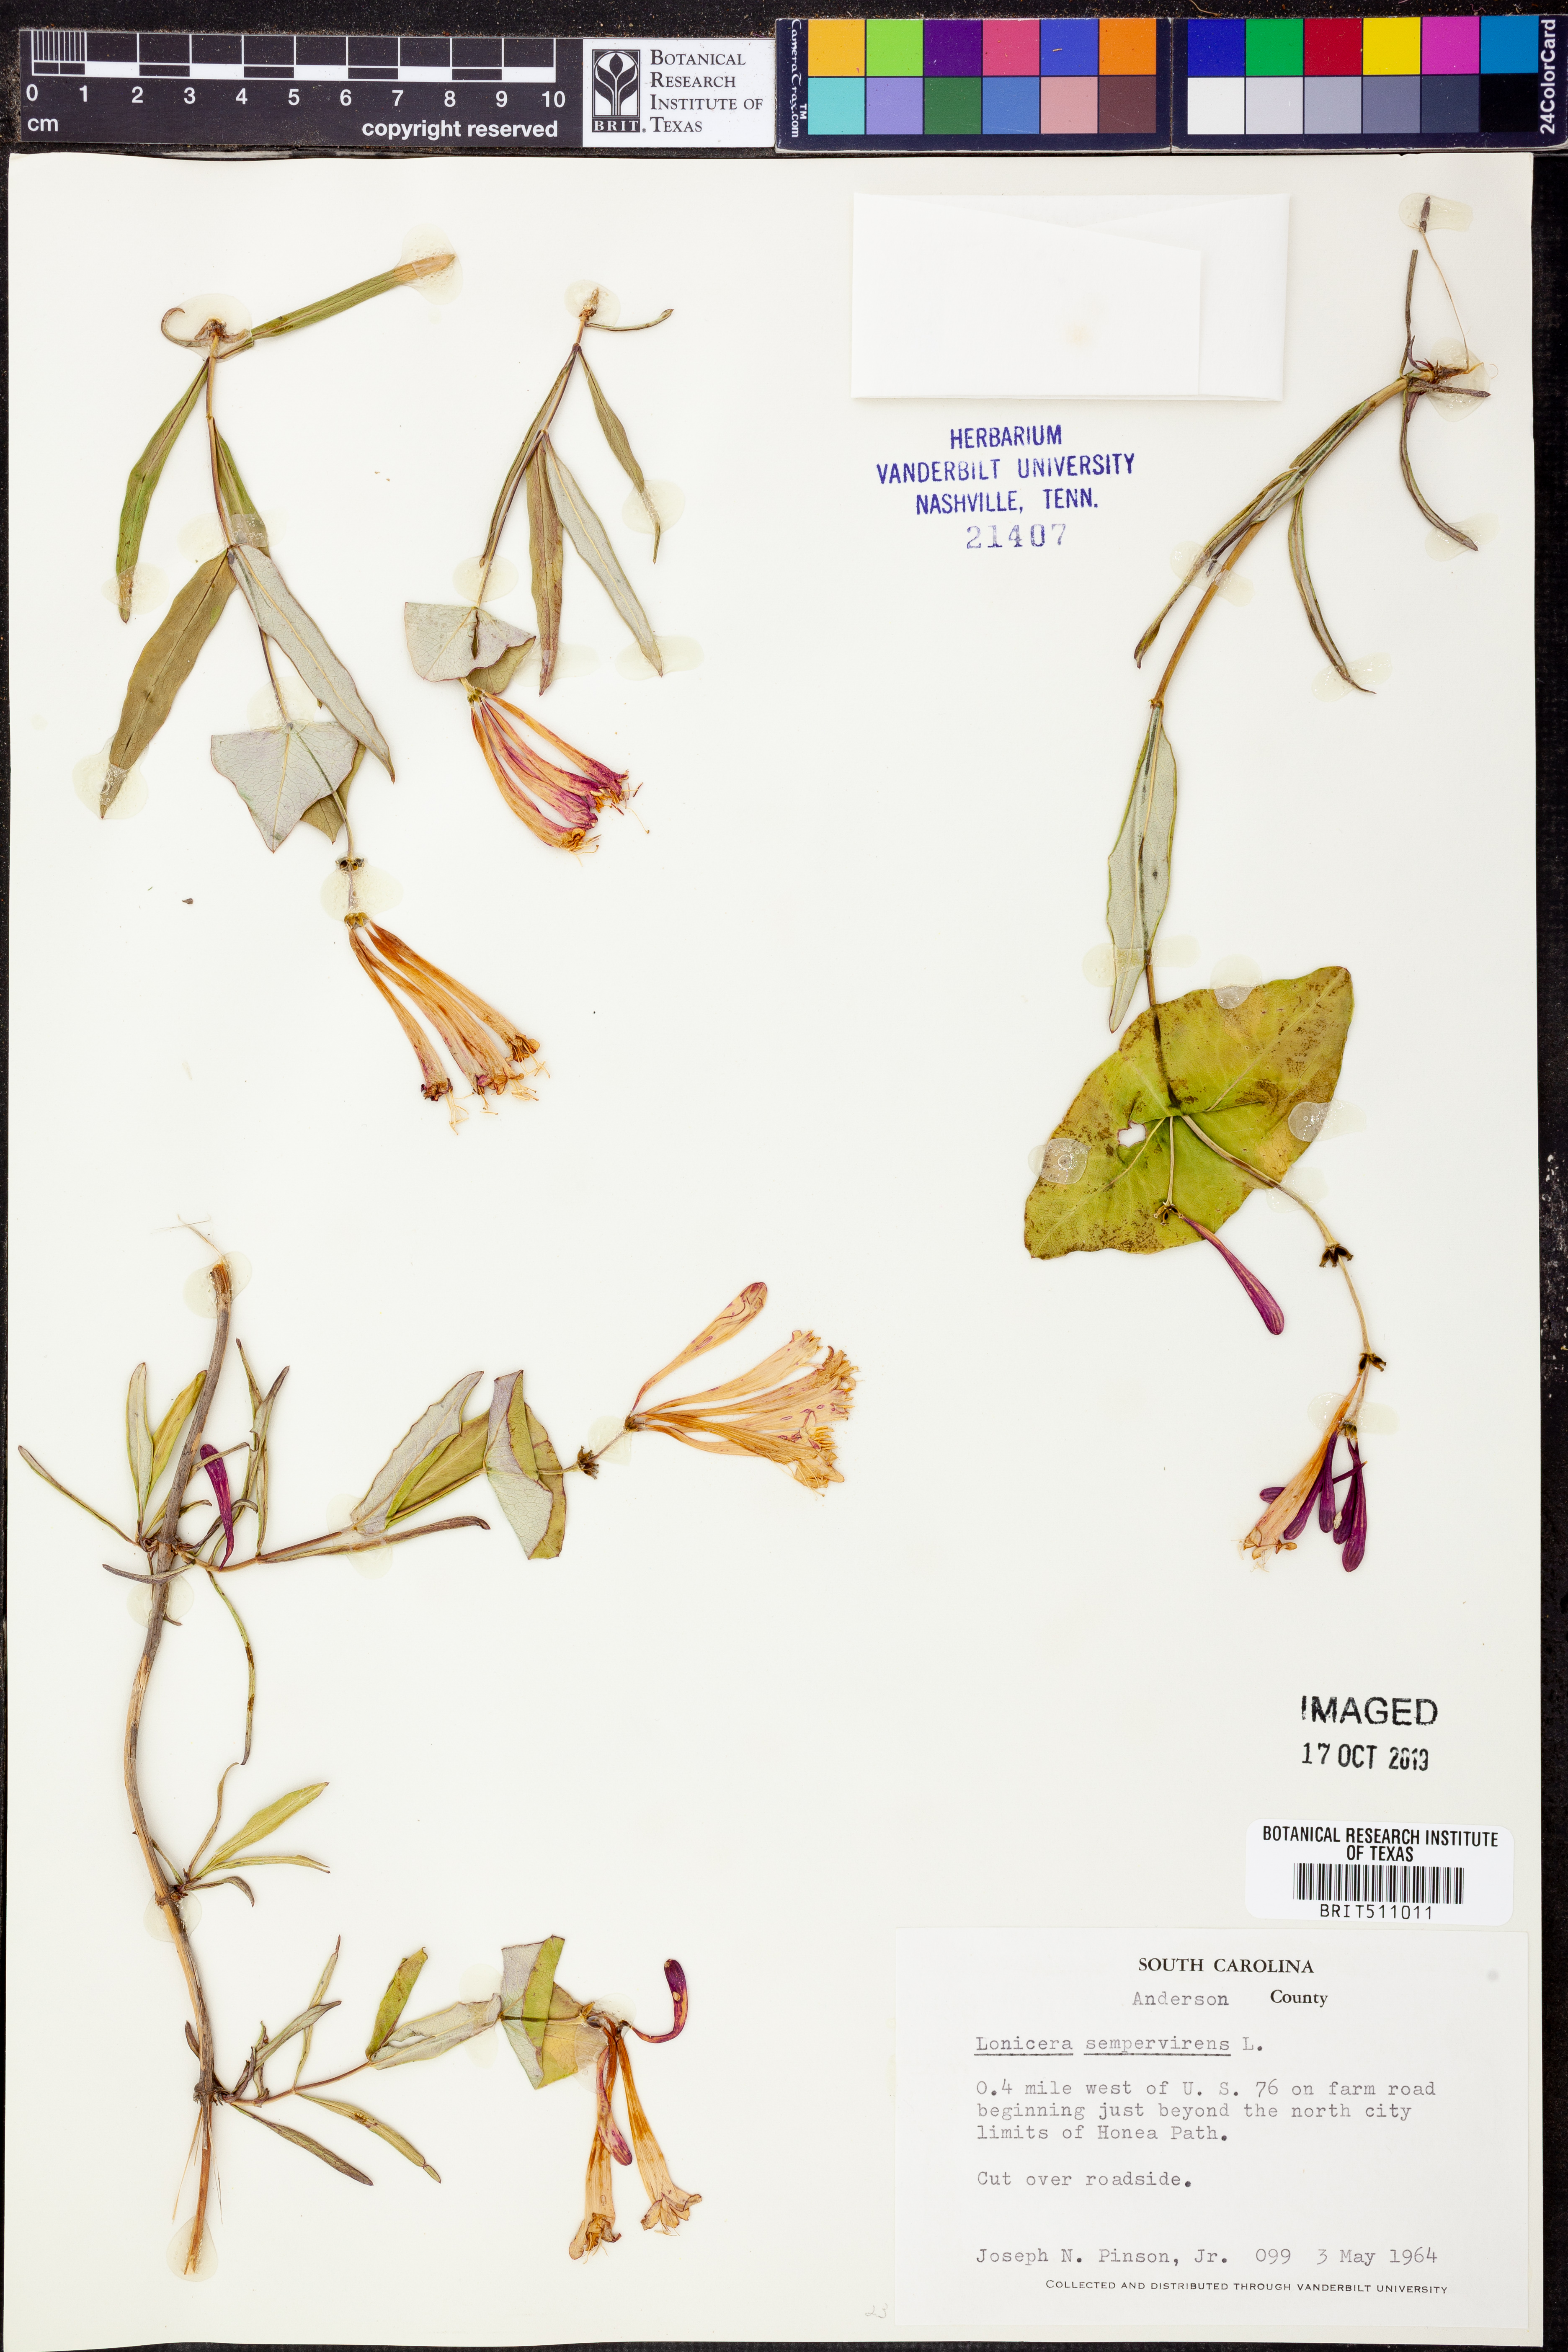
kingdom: Plantae
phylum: Tracheophyta
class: Magnoliopsida
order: Dipsacales
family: Caprifoliaceae
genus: Lonicera
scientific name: Lonicera sempervirens
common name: Coral honeysuckle
